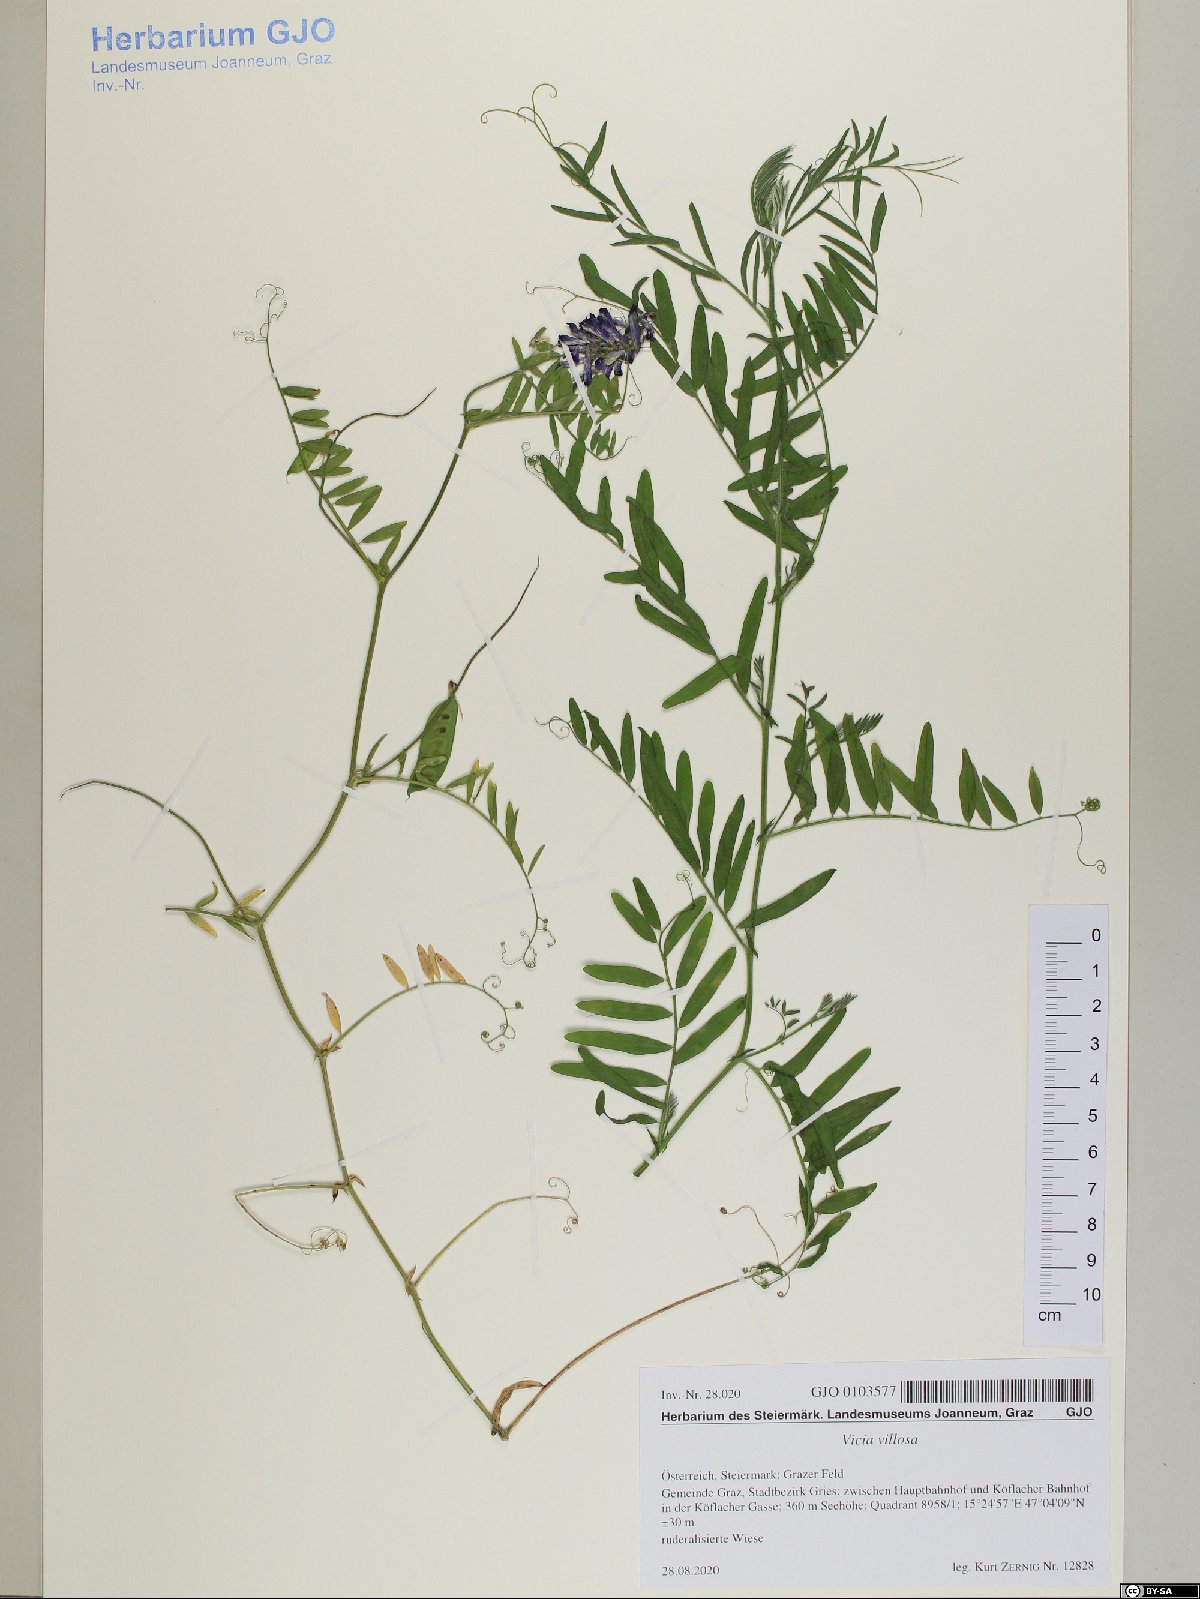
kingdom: Plantae
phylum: Tracheophyta
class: Magnoliopsida
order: Fabales
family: Fabaceae
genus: Vicia
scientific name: Vicia villosa
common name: Fodder vetch
